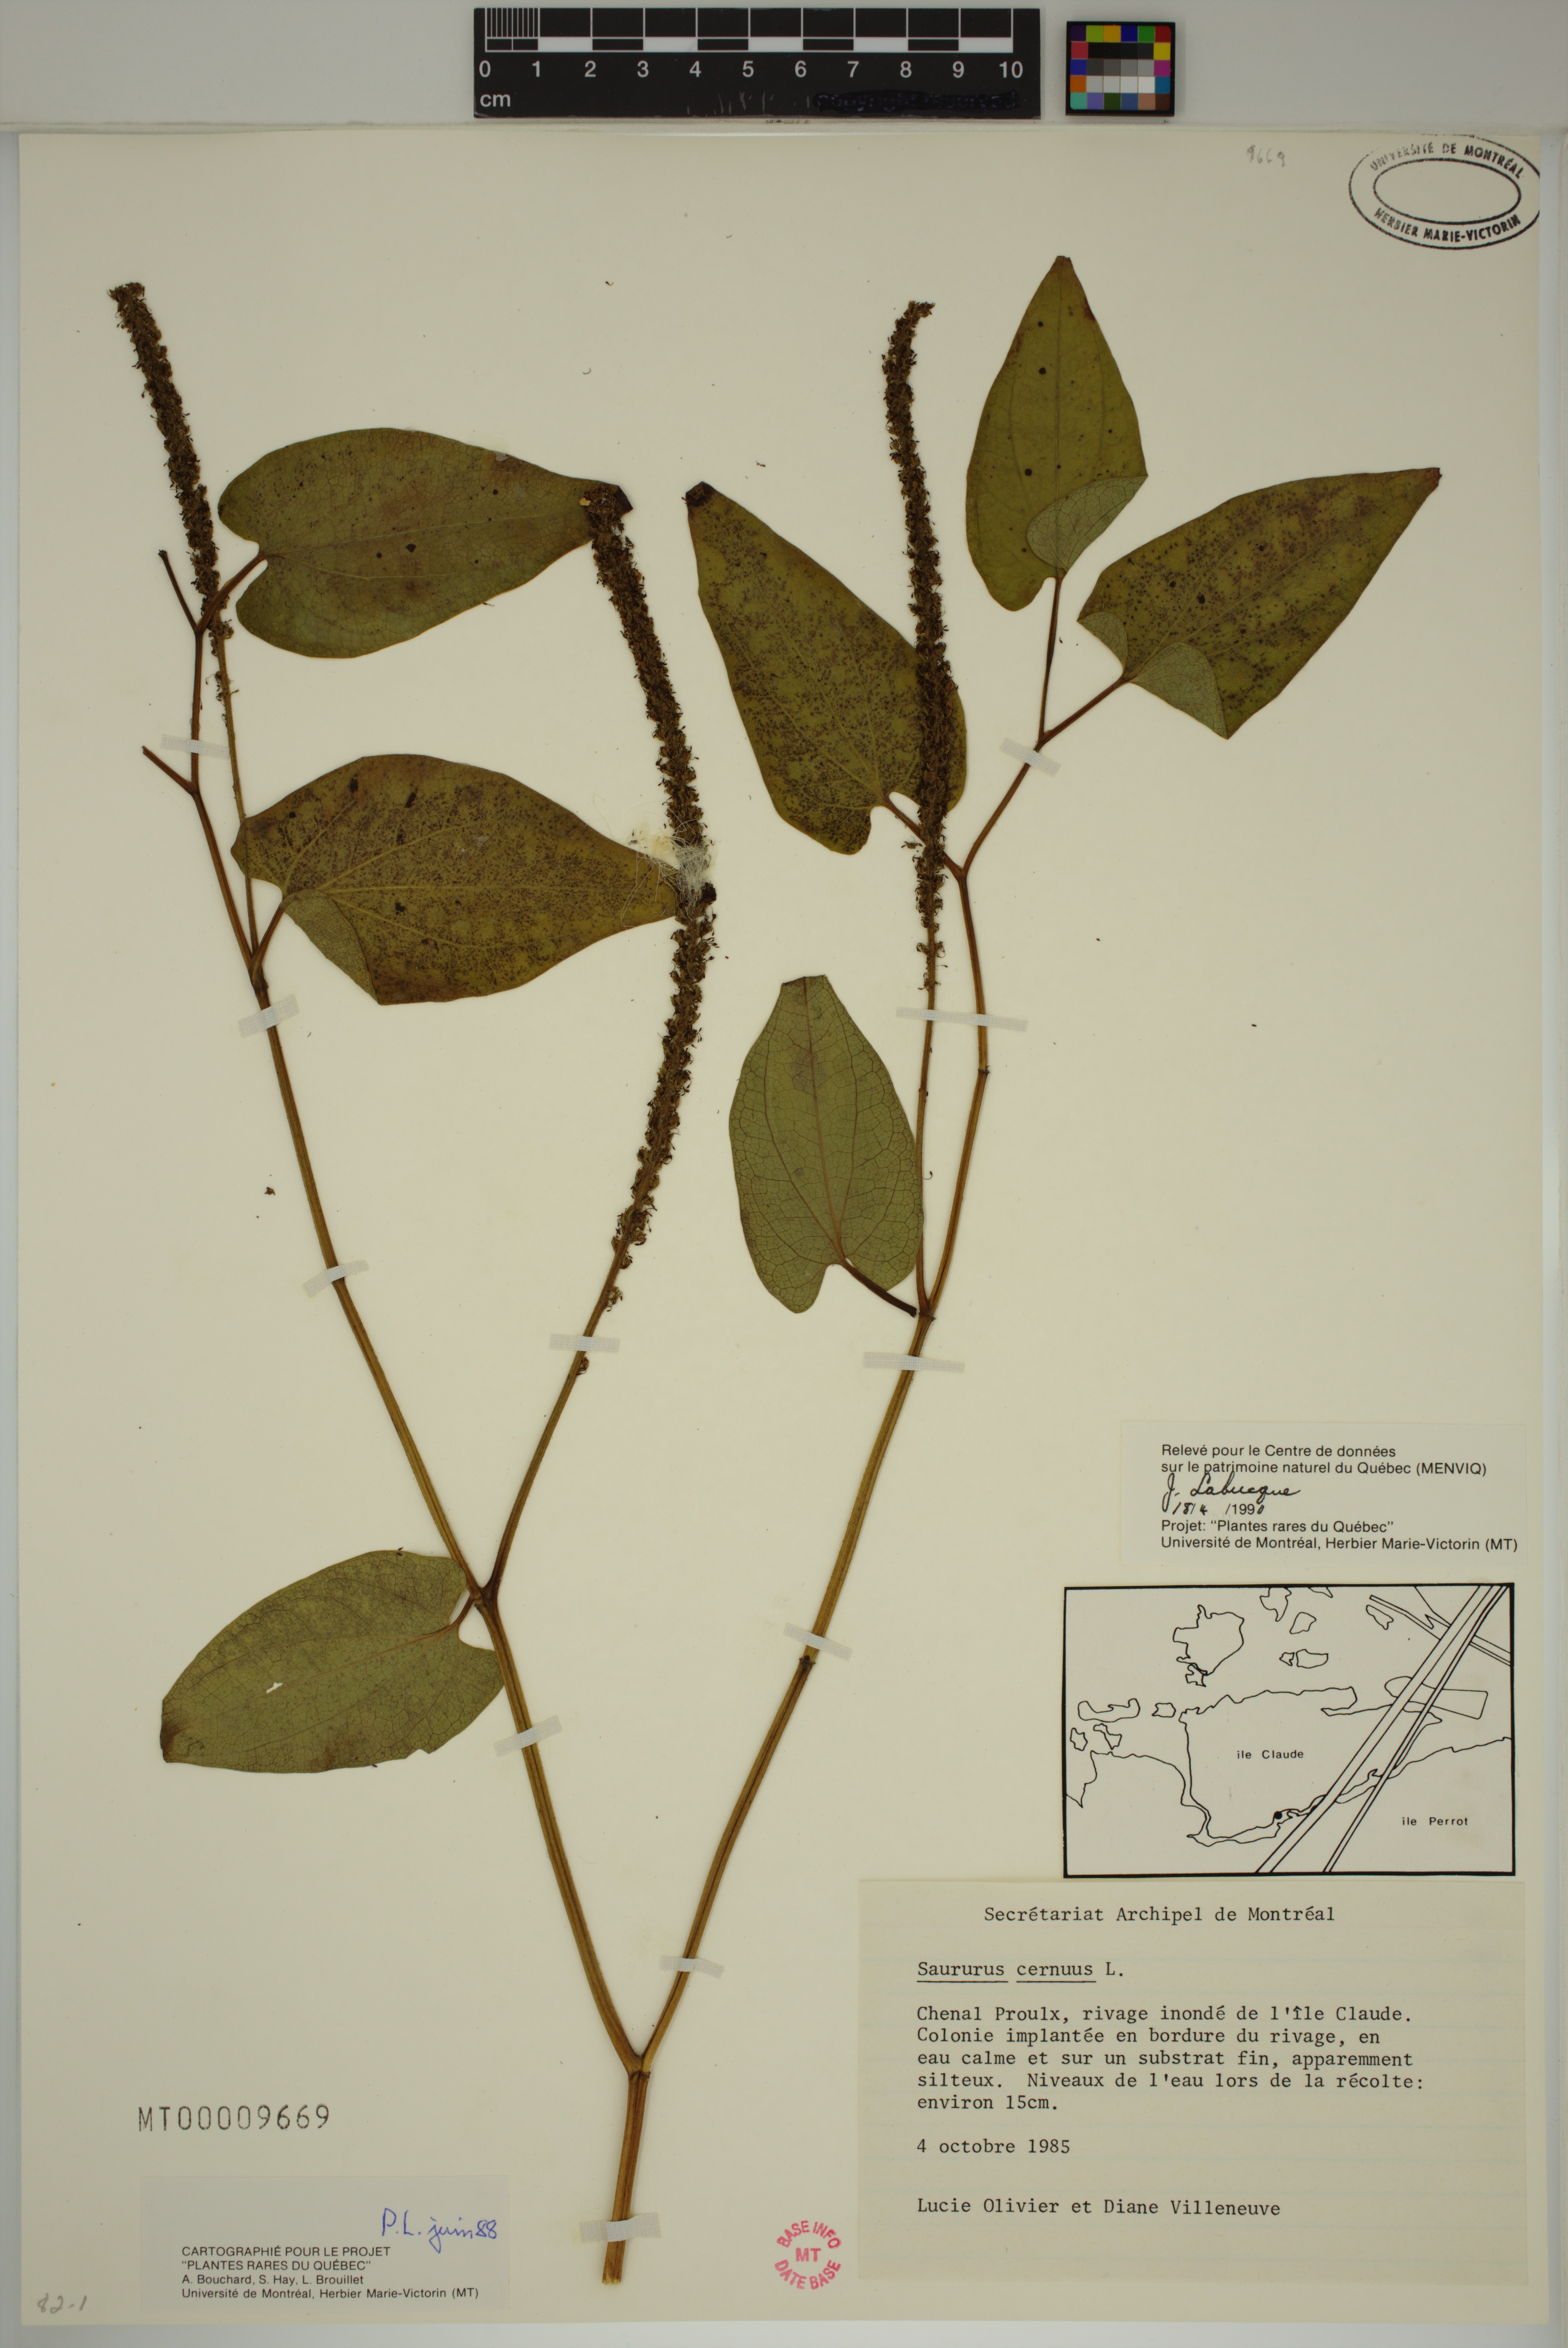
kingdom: Plantae
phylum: Tracheophyta
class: Magnoliopsida
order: Piperales
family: Saururaceae
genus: Saururus
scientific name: Saururus cernuus
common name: Lizard's-tail
